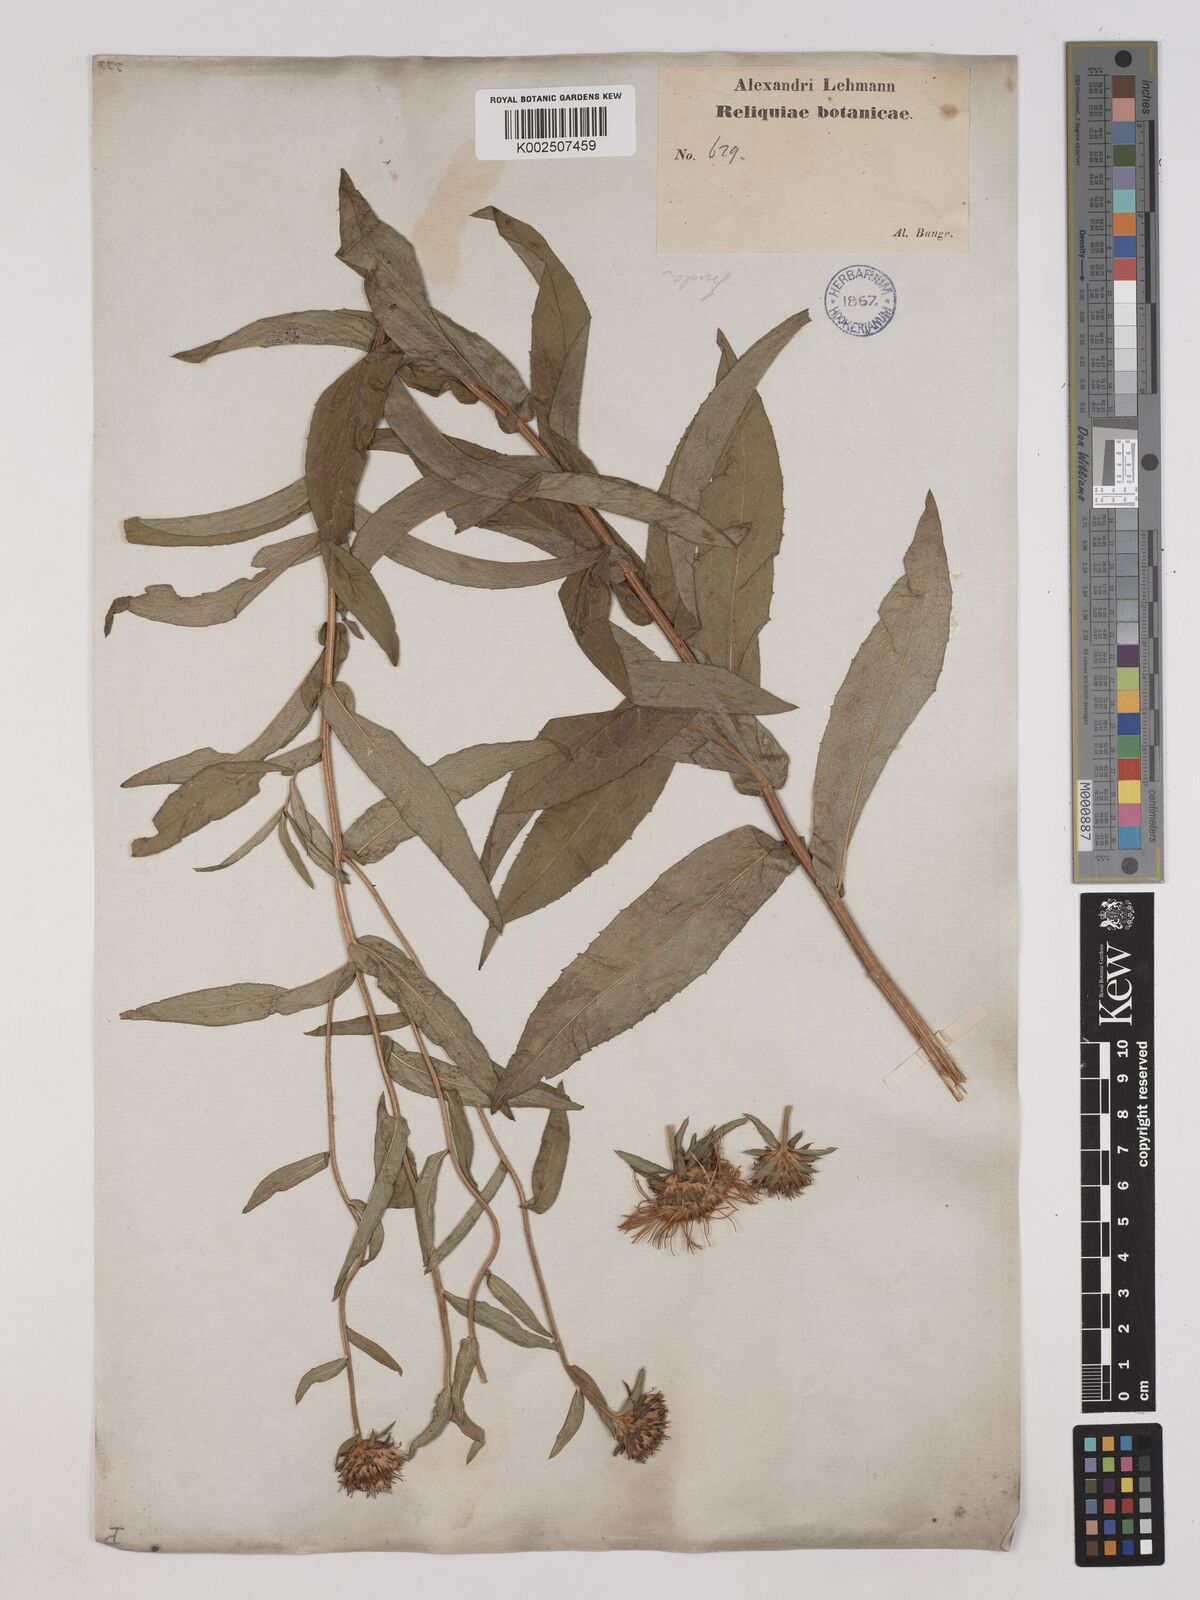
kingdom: Plantae
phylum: Tracheophyta
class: Magnoliopsida
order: Asterales
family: Asteraceae
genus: Pentanema
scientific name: Pentanema salicinum
